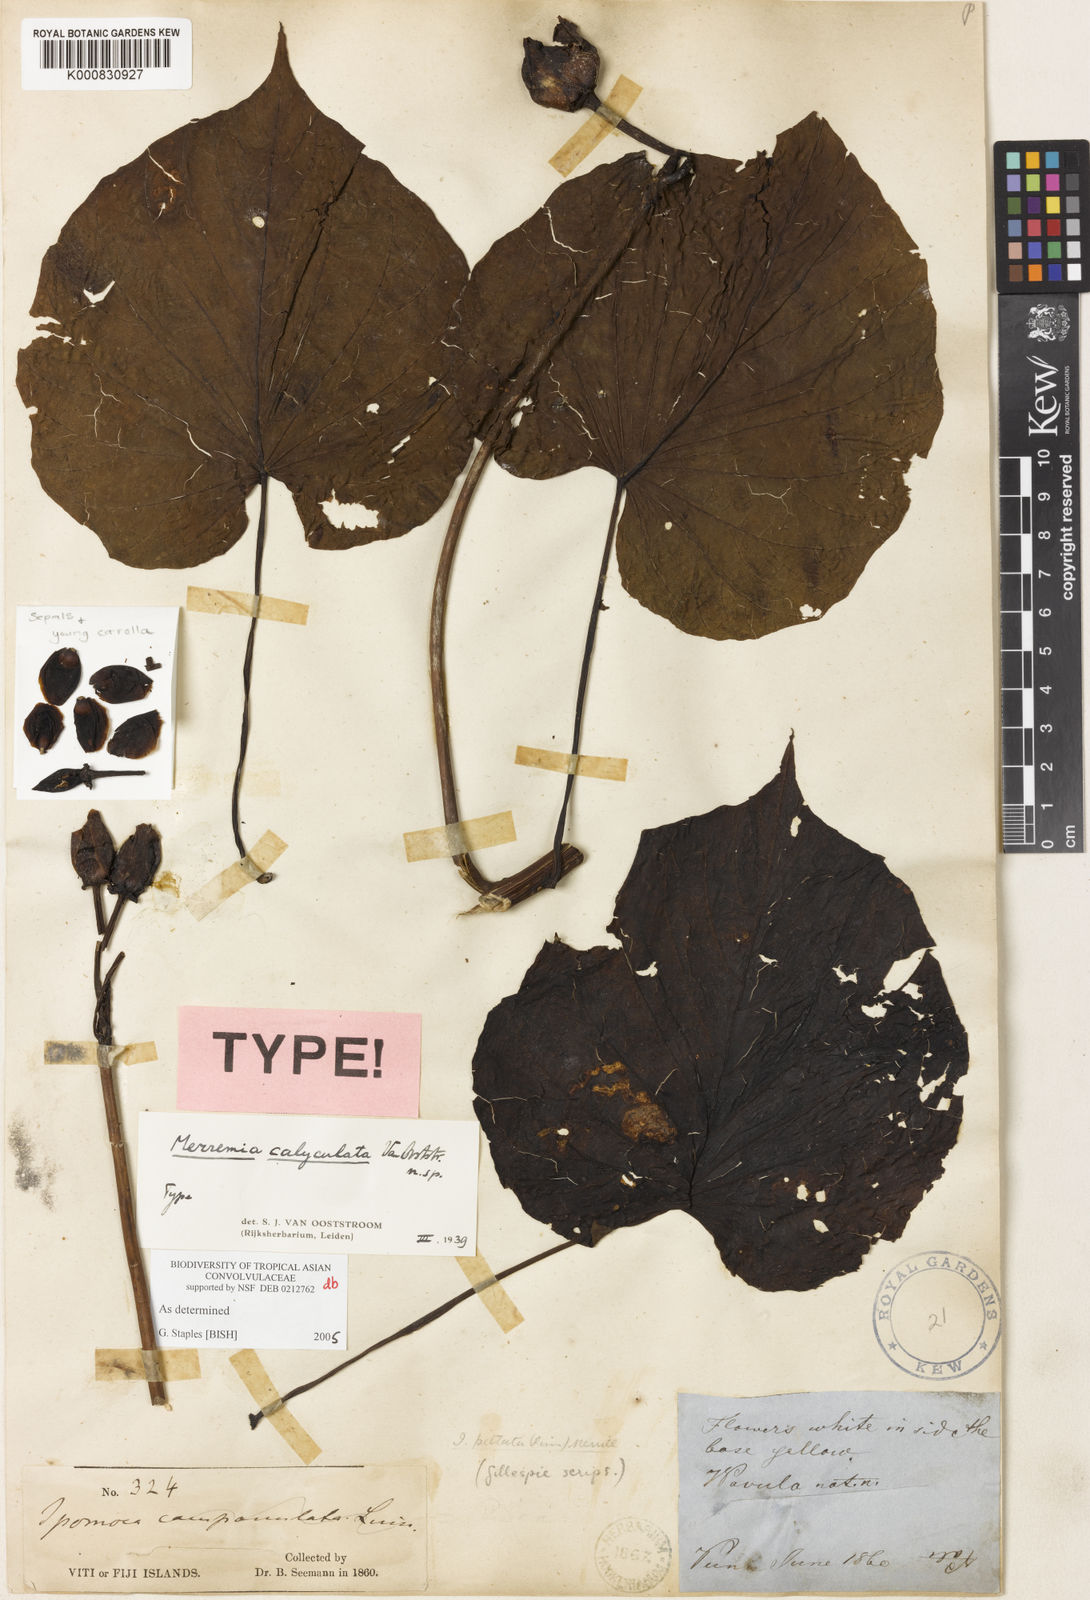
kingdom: Plantae
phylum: Tracheophyta
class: Magnoliopsida
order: Solanales
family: Convolvulaceae
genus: Merremia
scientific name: Merremia calyculata
